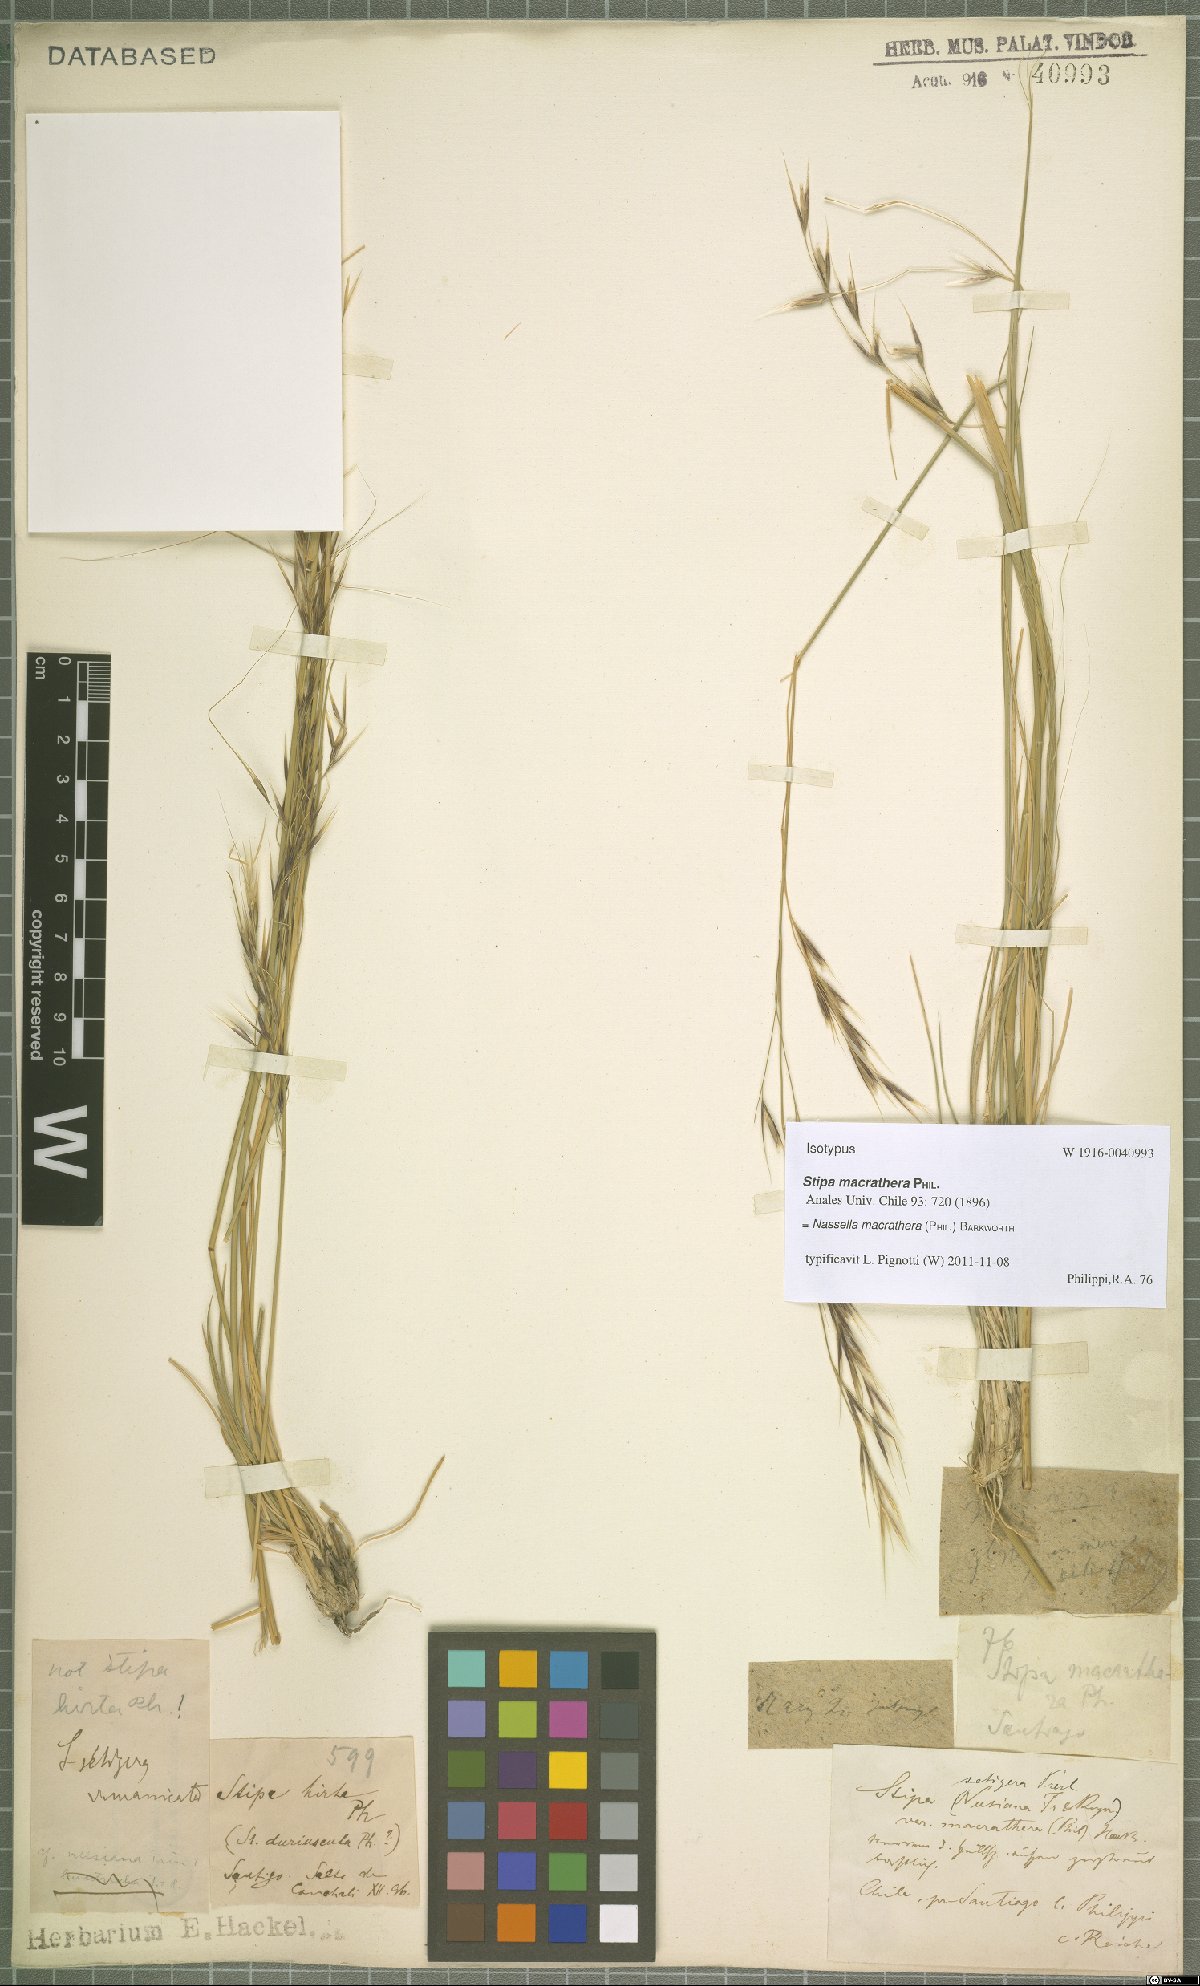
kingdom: Plantae
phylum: Tracheophyta
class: Liliopsida
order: Poales
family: Poaceae
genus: Nassella
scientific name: Nassella macrathera
